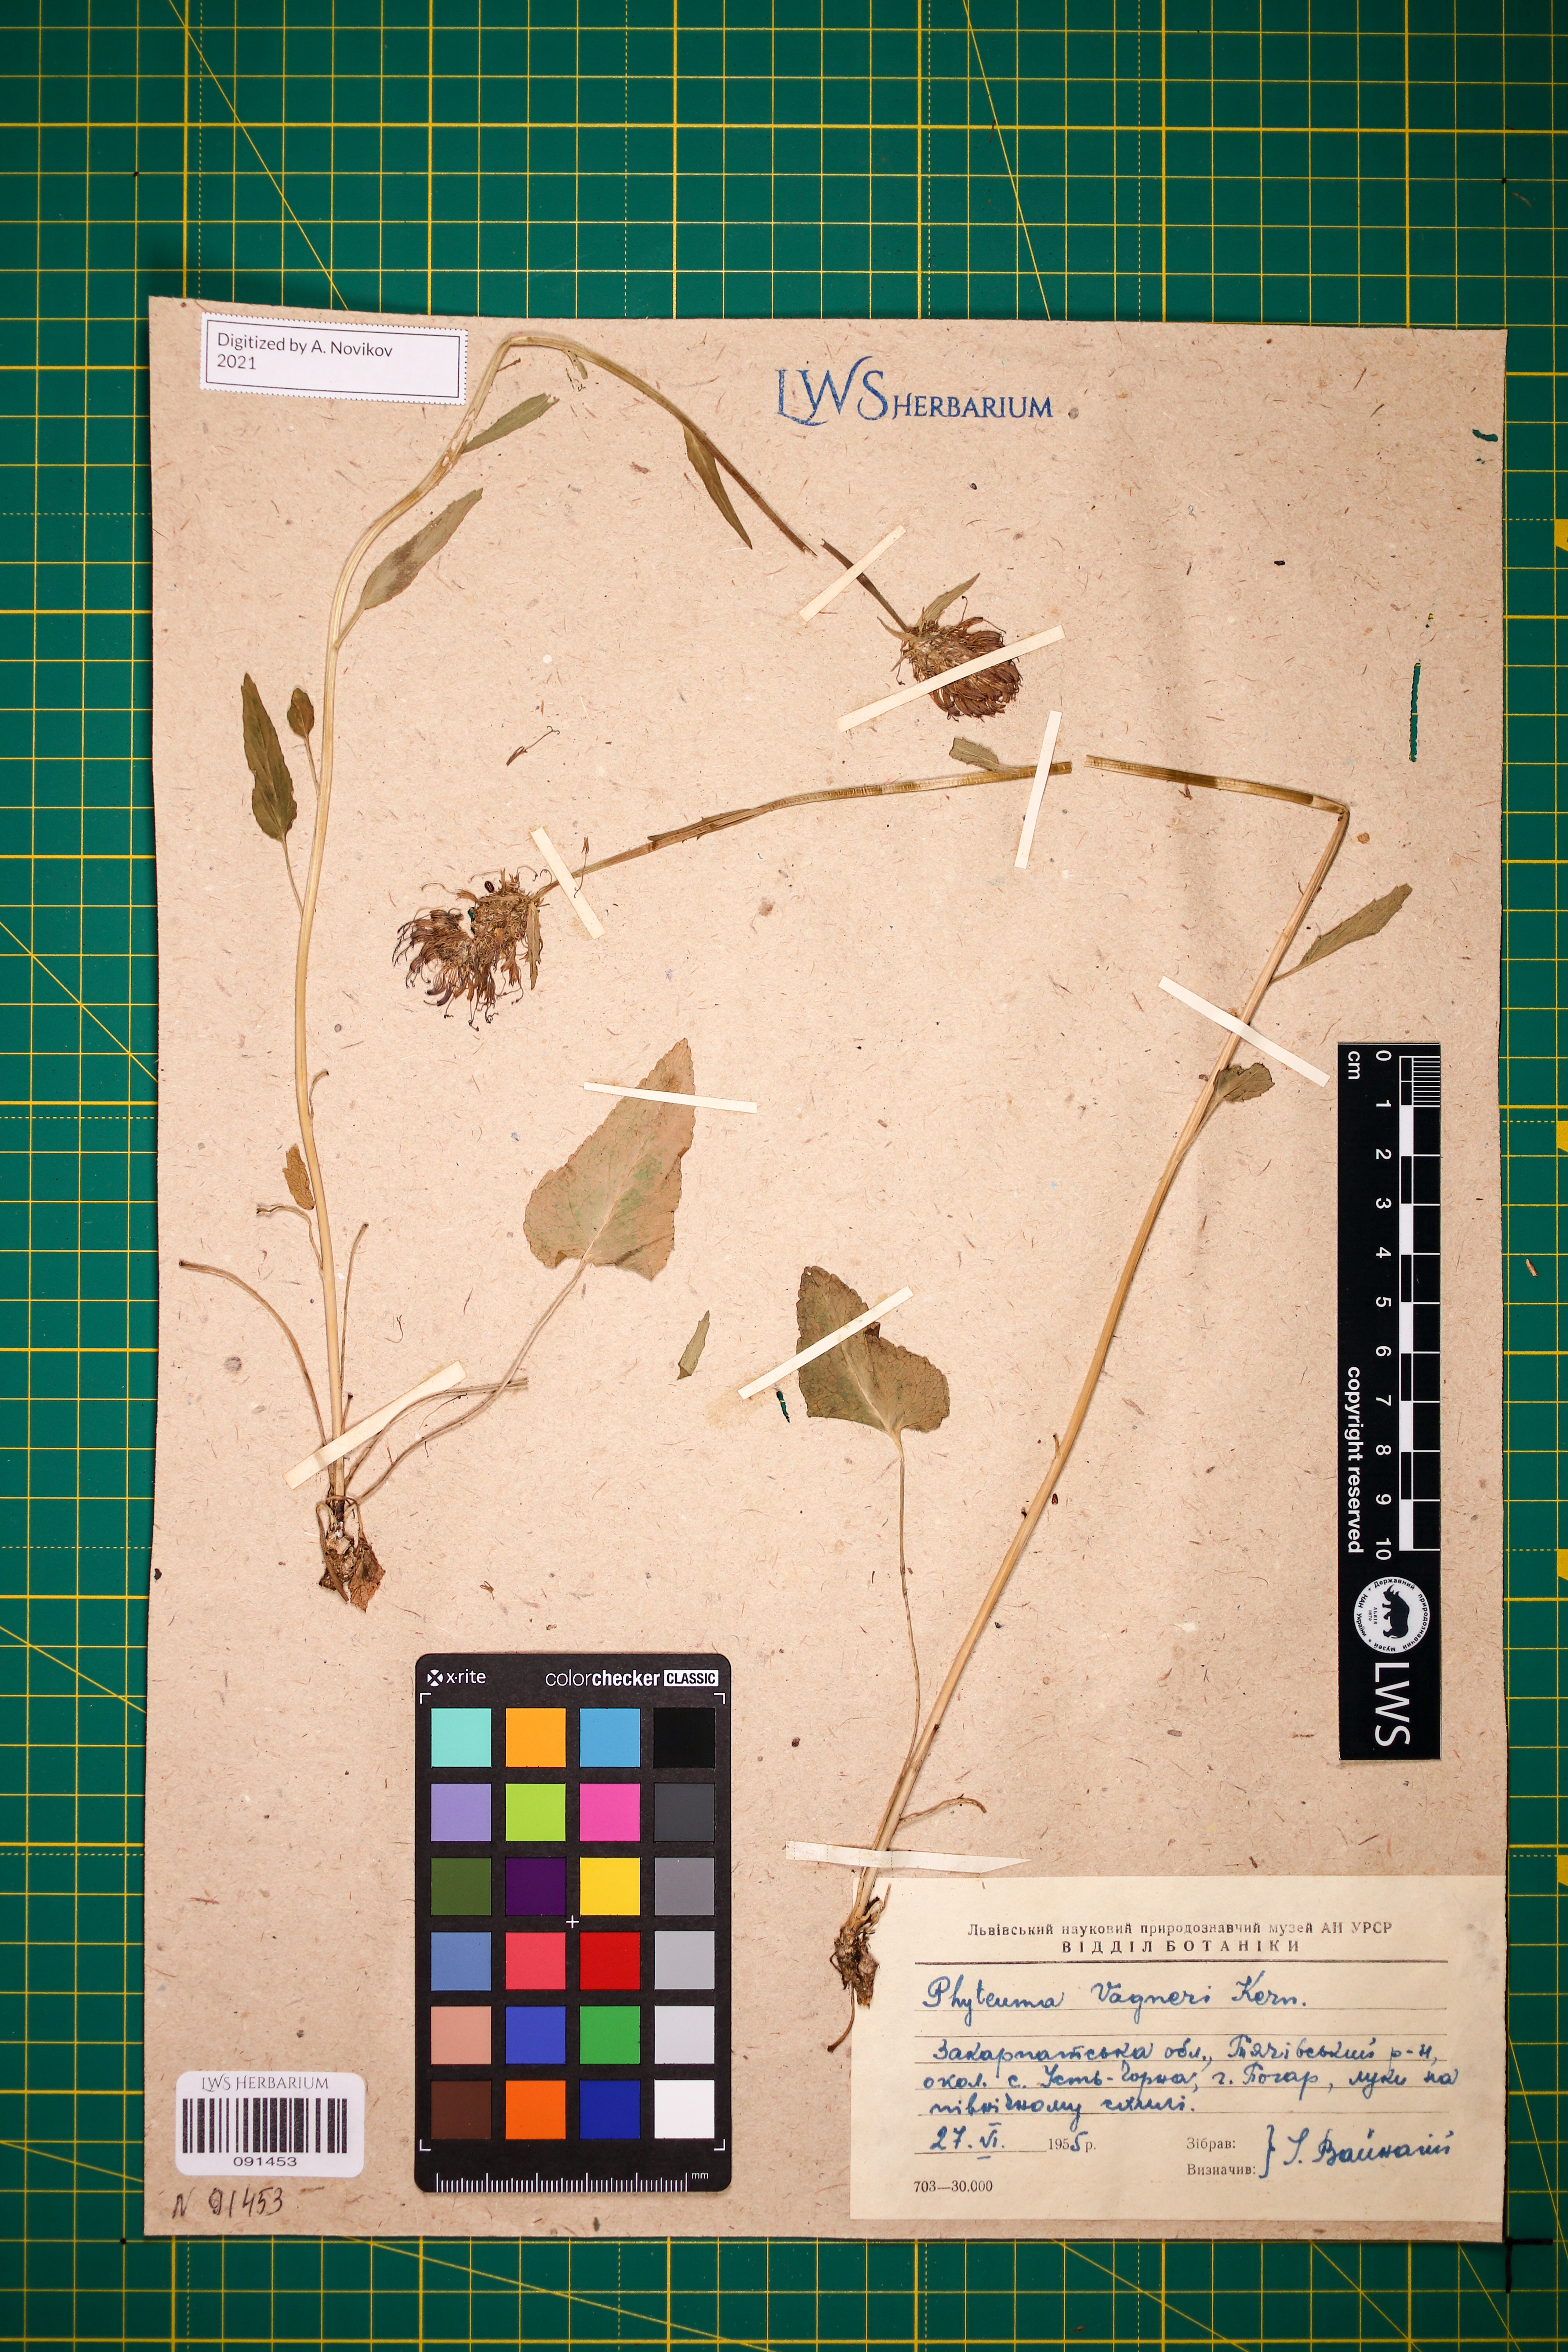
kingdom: Plantae
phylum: Tracheophyta
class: Magnoliopsida
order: Asterales
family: Campanulaceae
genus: Phyteuma
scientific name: Phyteuma vagneri
